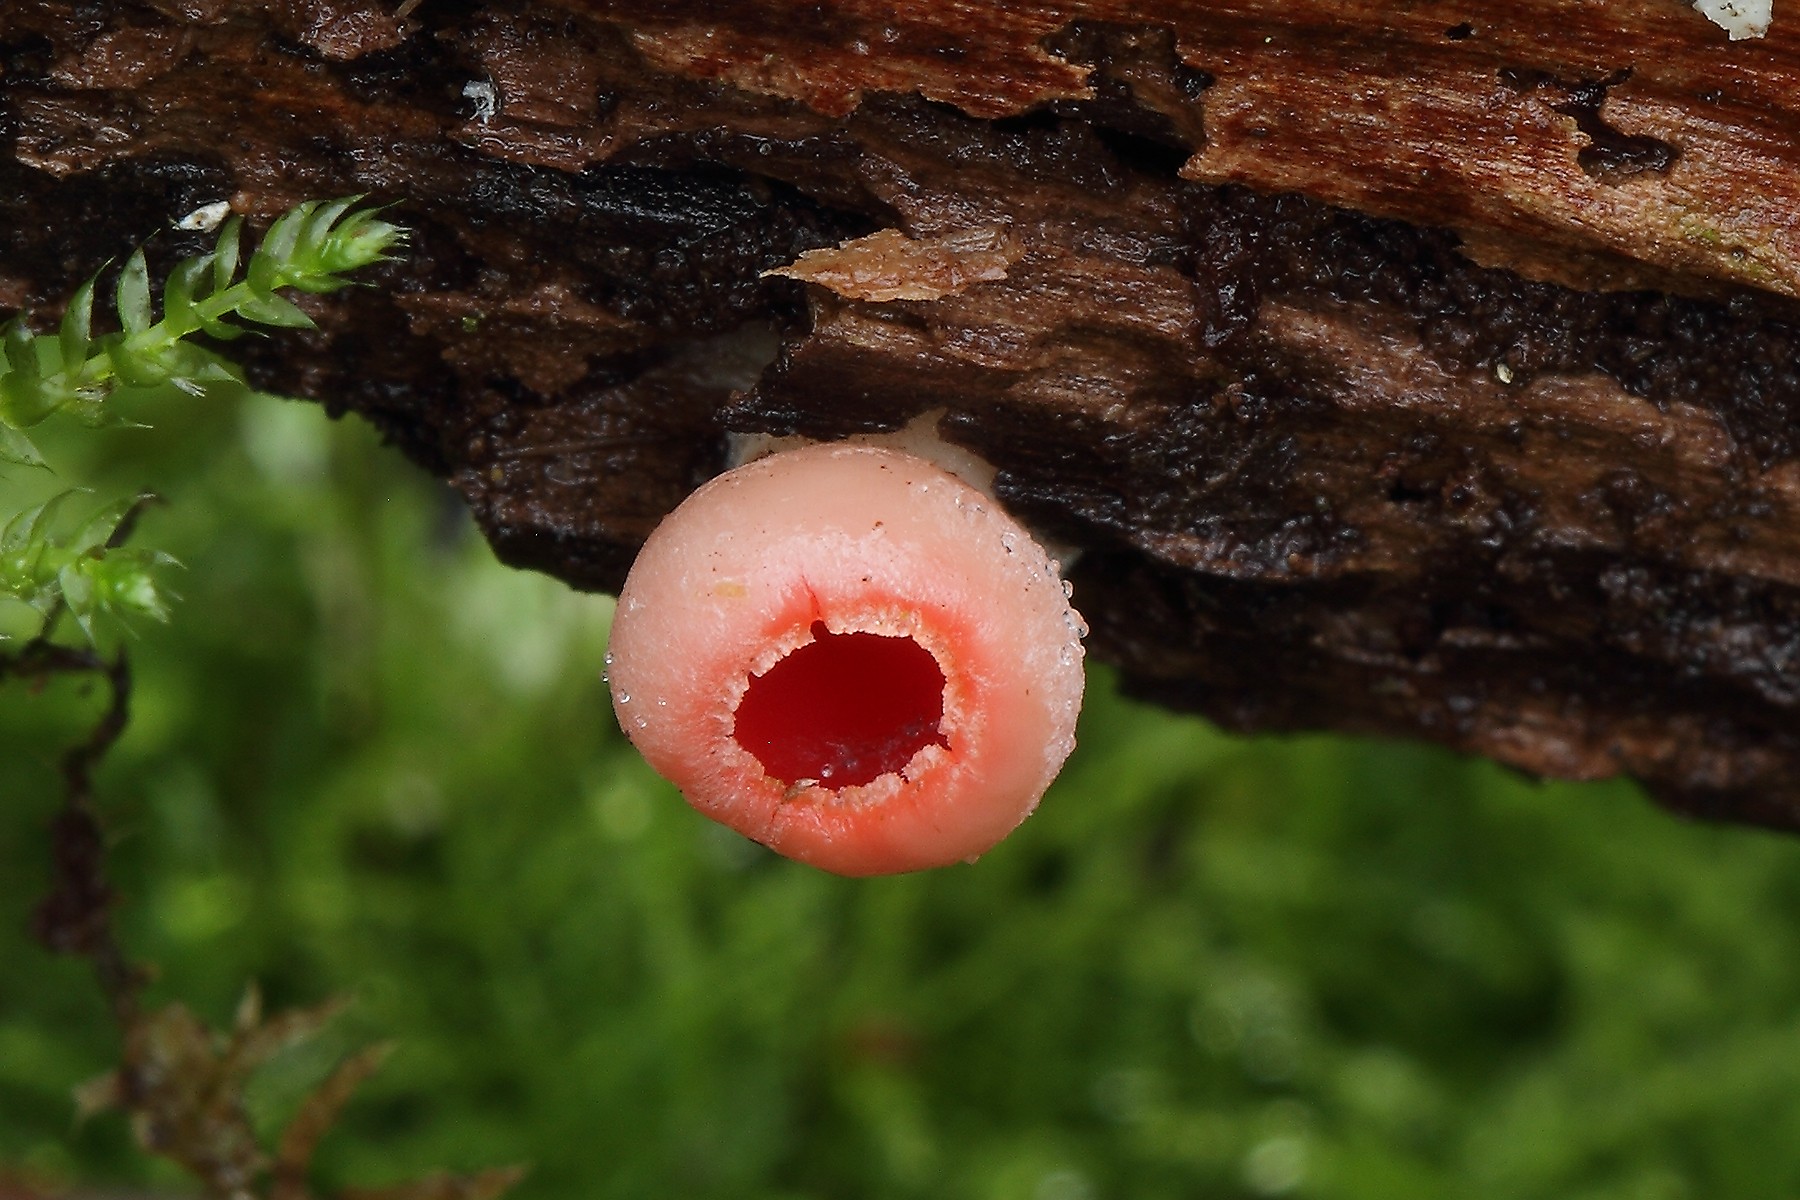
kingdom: Fungi
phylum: Ascomycota
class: Pezizomycetes
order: Pezizales
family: Sarcoscyphaceae
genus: Sarcoscypha
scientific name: Sarcoscypha austriaca
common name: krølhåret pragtbæger
